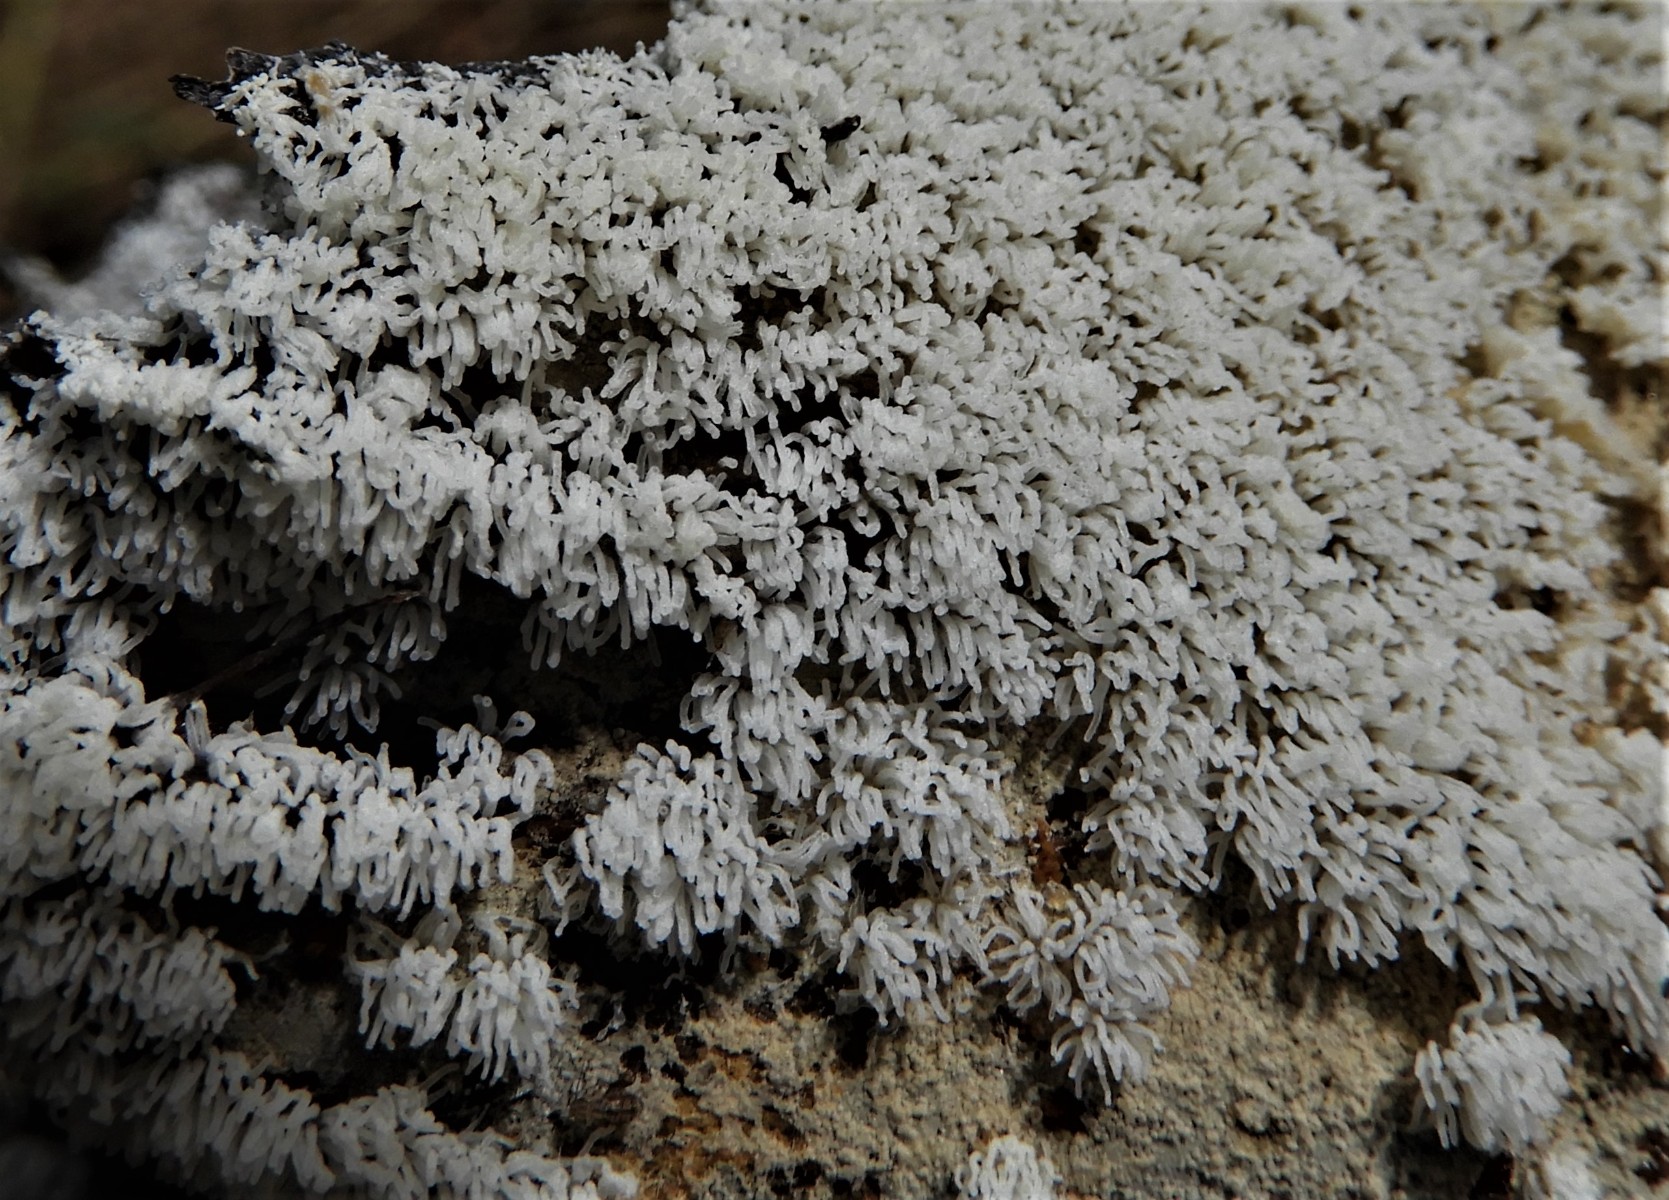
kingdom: Protozoa
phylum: Mycetozoa
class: Protosteliomycetes
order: Ceratiomyxales
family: Ceratiomyxaceae
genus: Ceratiomyxa
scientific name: Ceratiomyxa fruticulosa
